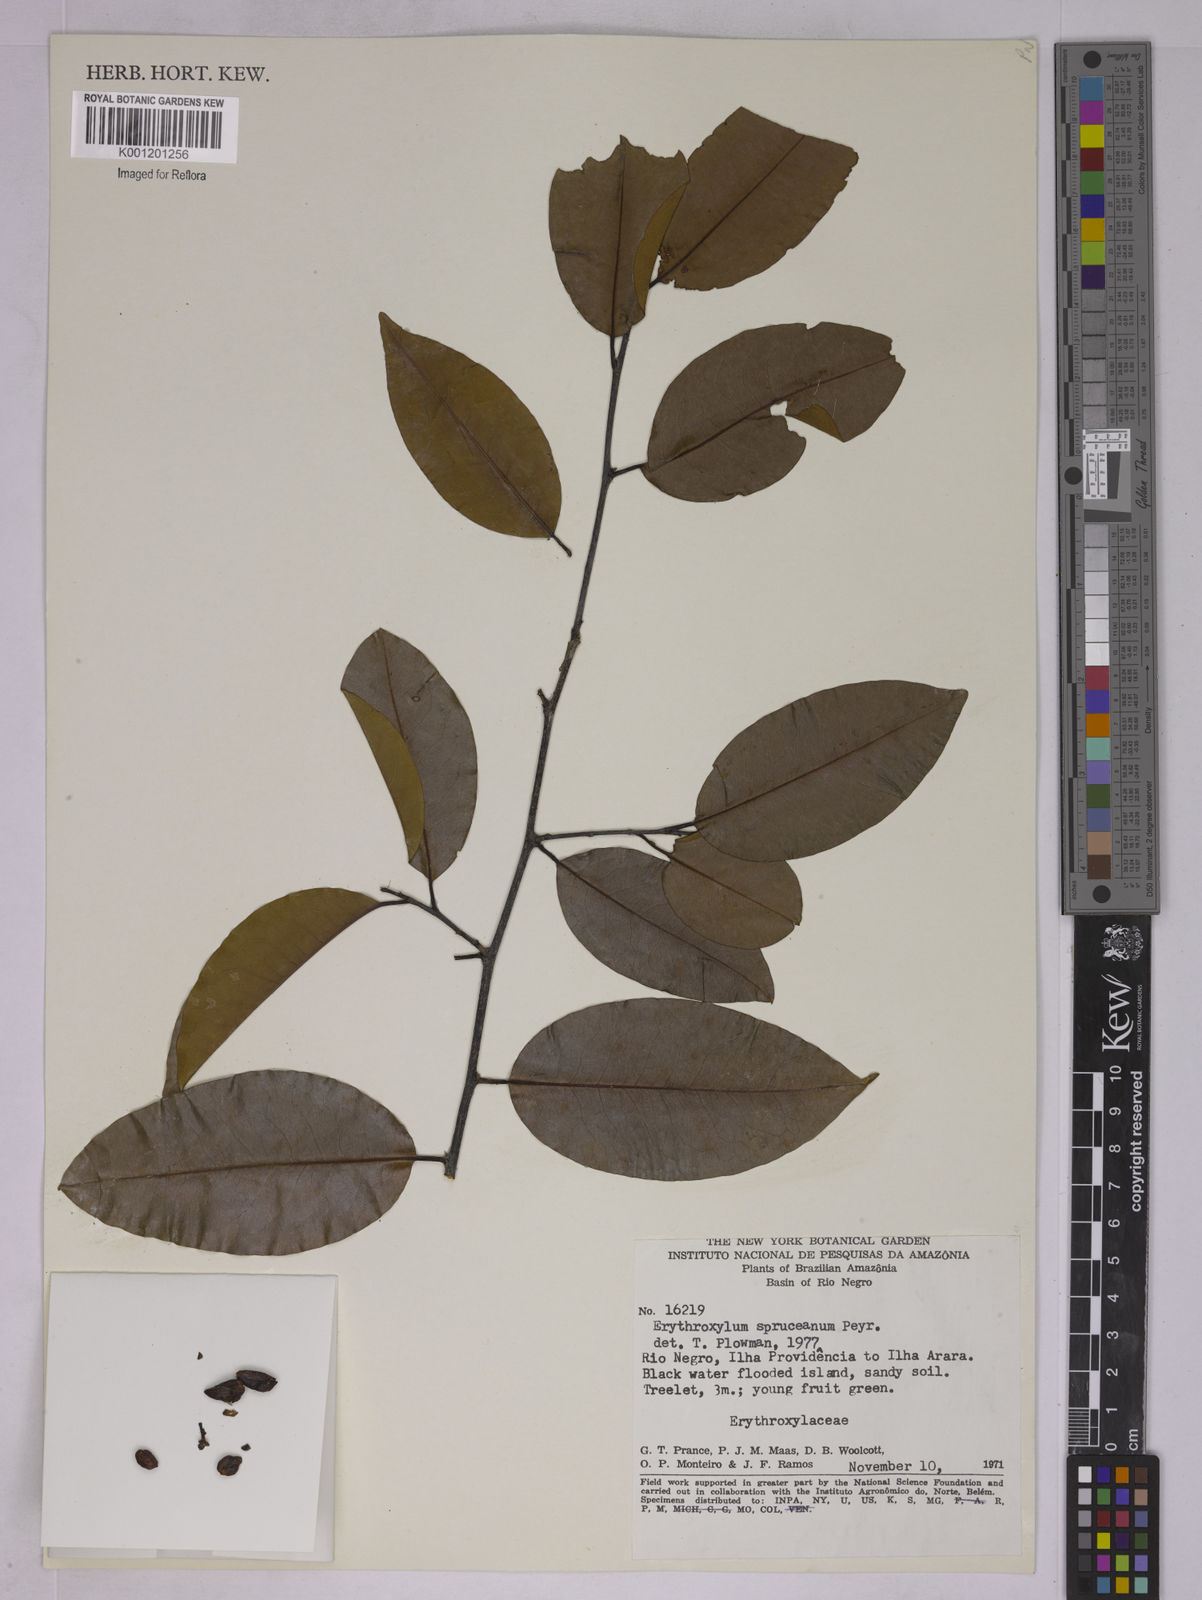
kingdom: Plantae
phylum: Tracheophyta
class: Magnoliopsida
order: Malpighiales
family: Erythroxylaceae
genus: Erythroxylum
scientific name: Erythroxylum spruceanum
